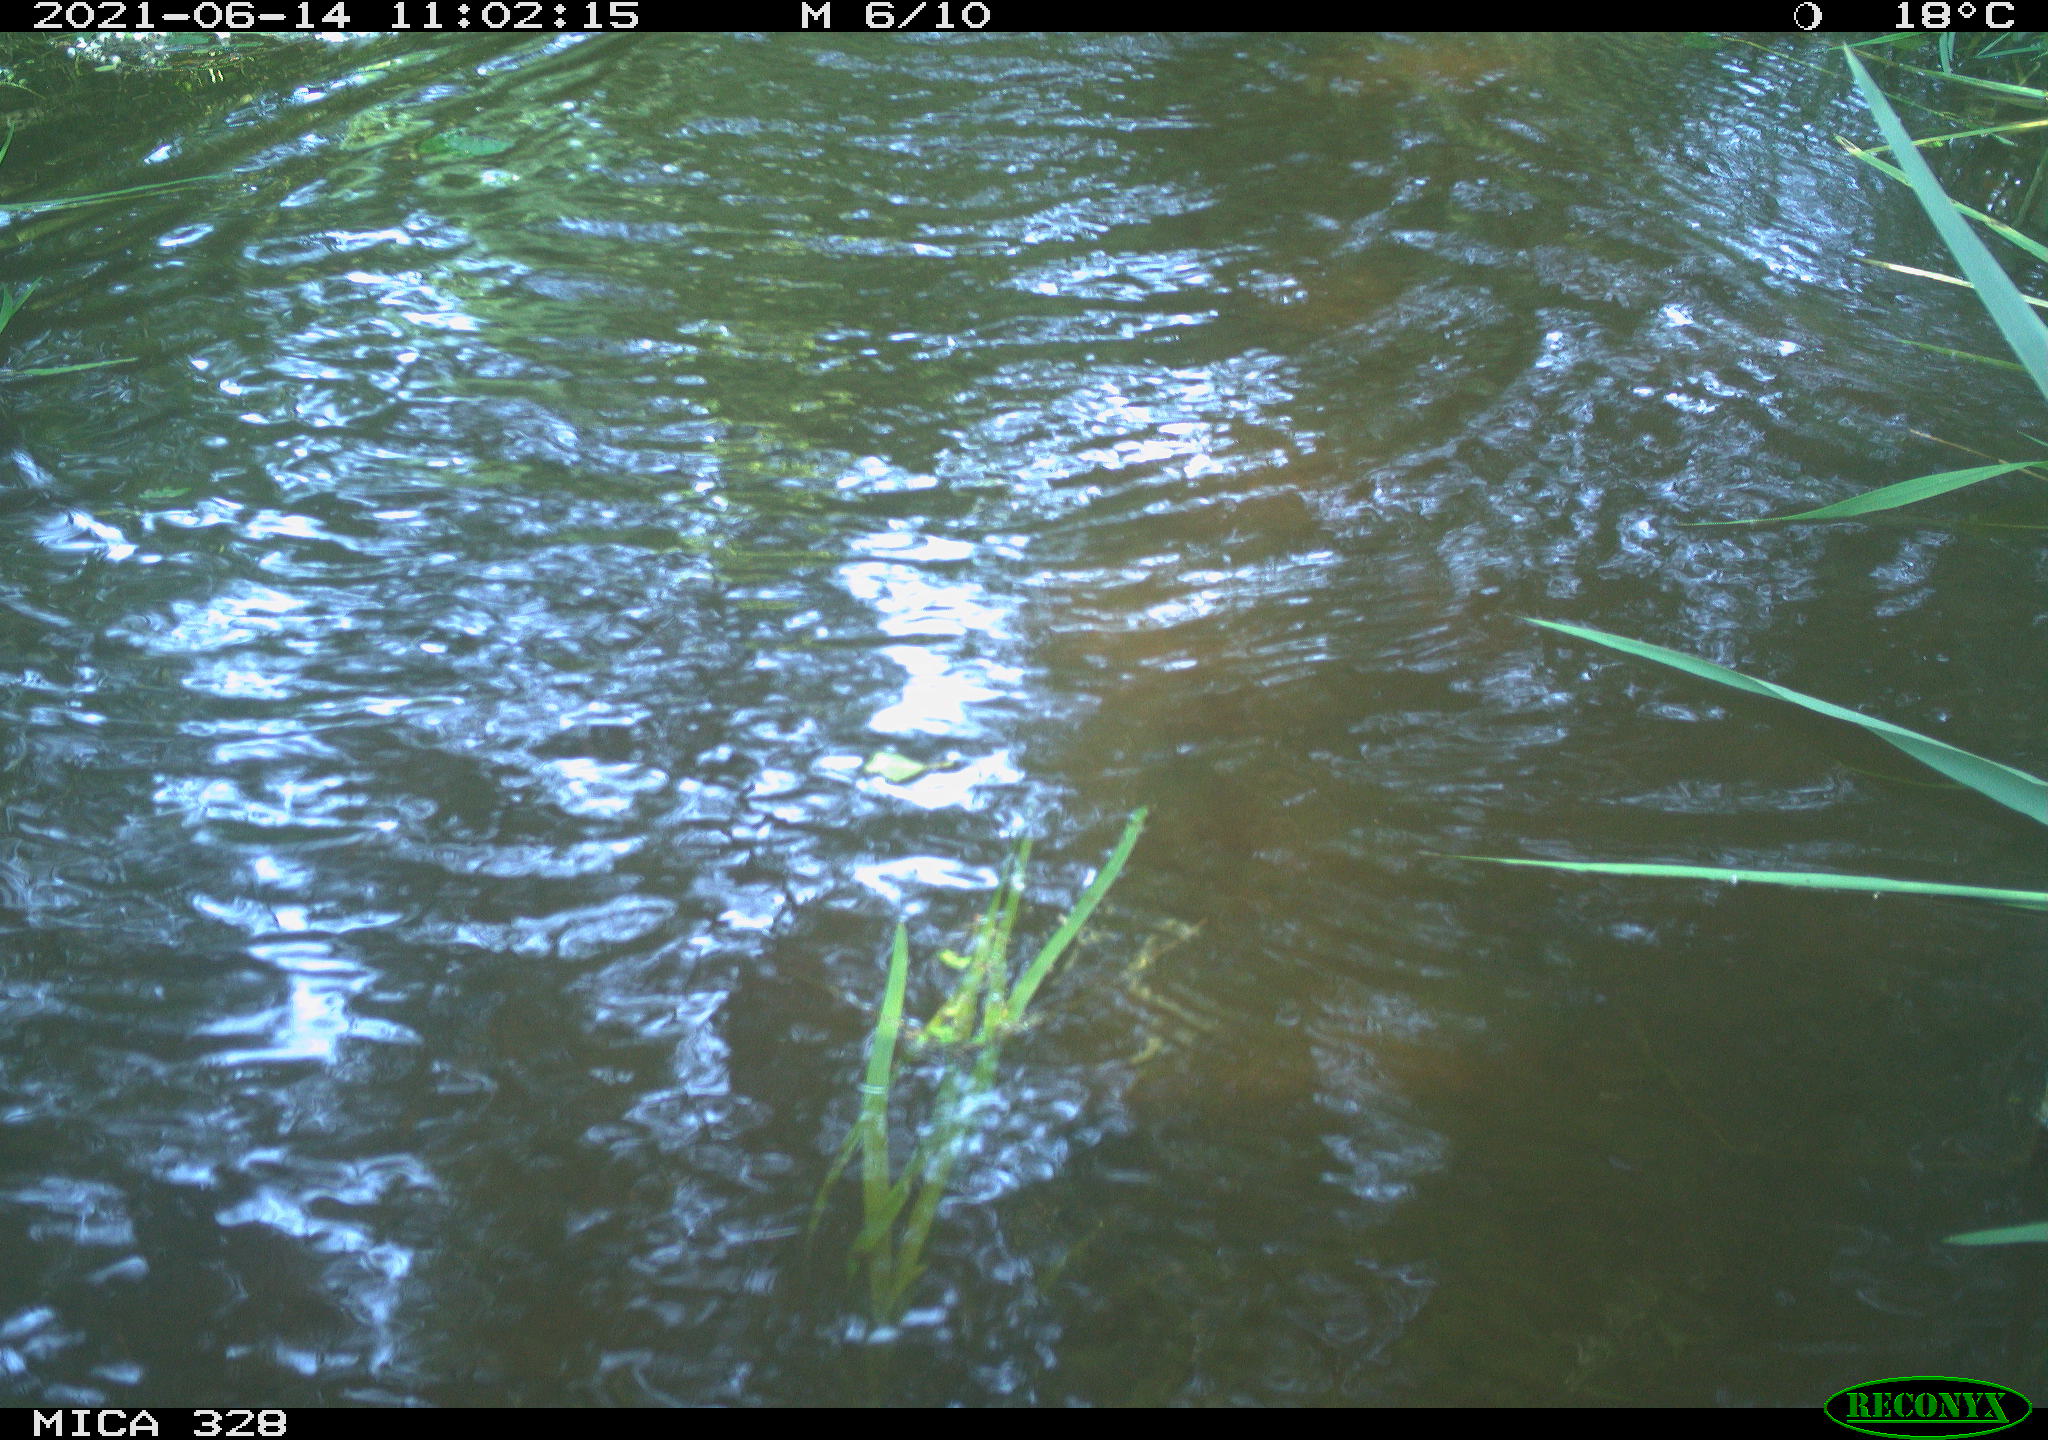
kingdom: Animalia
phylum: Chordata
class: Mammalia
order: Rodentia
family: Cricetidae
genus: Ondatra
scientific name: Ondatra zibethicus
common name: Muskrat
